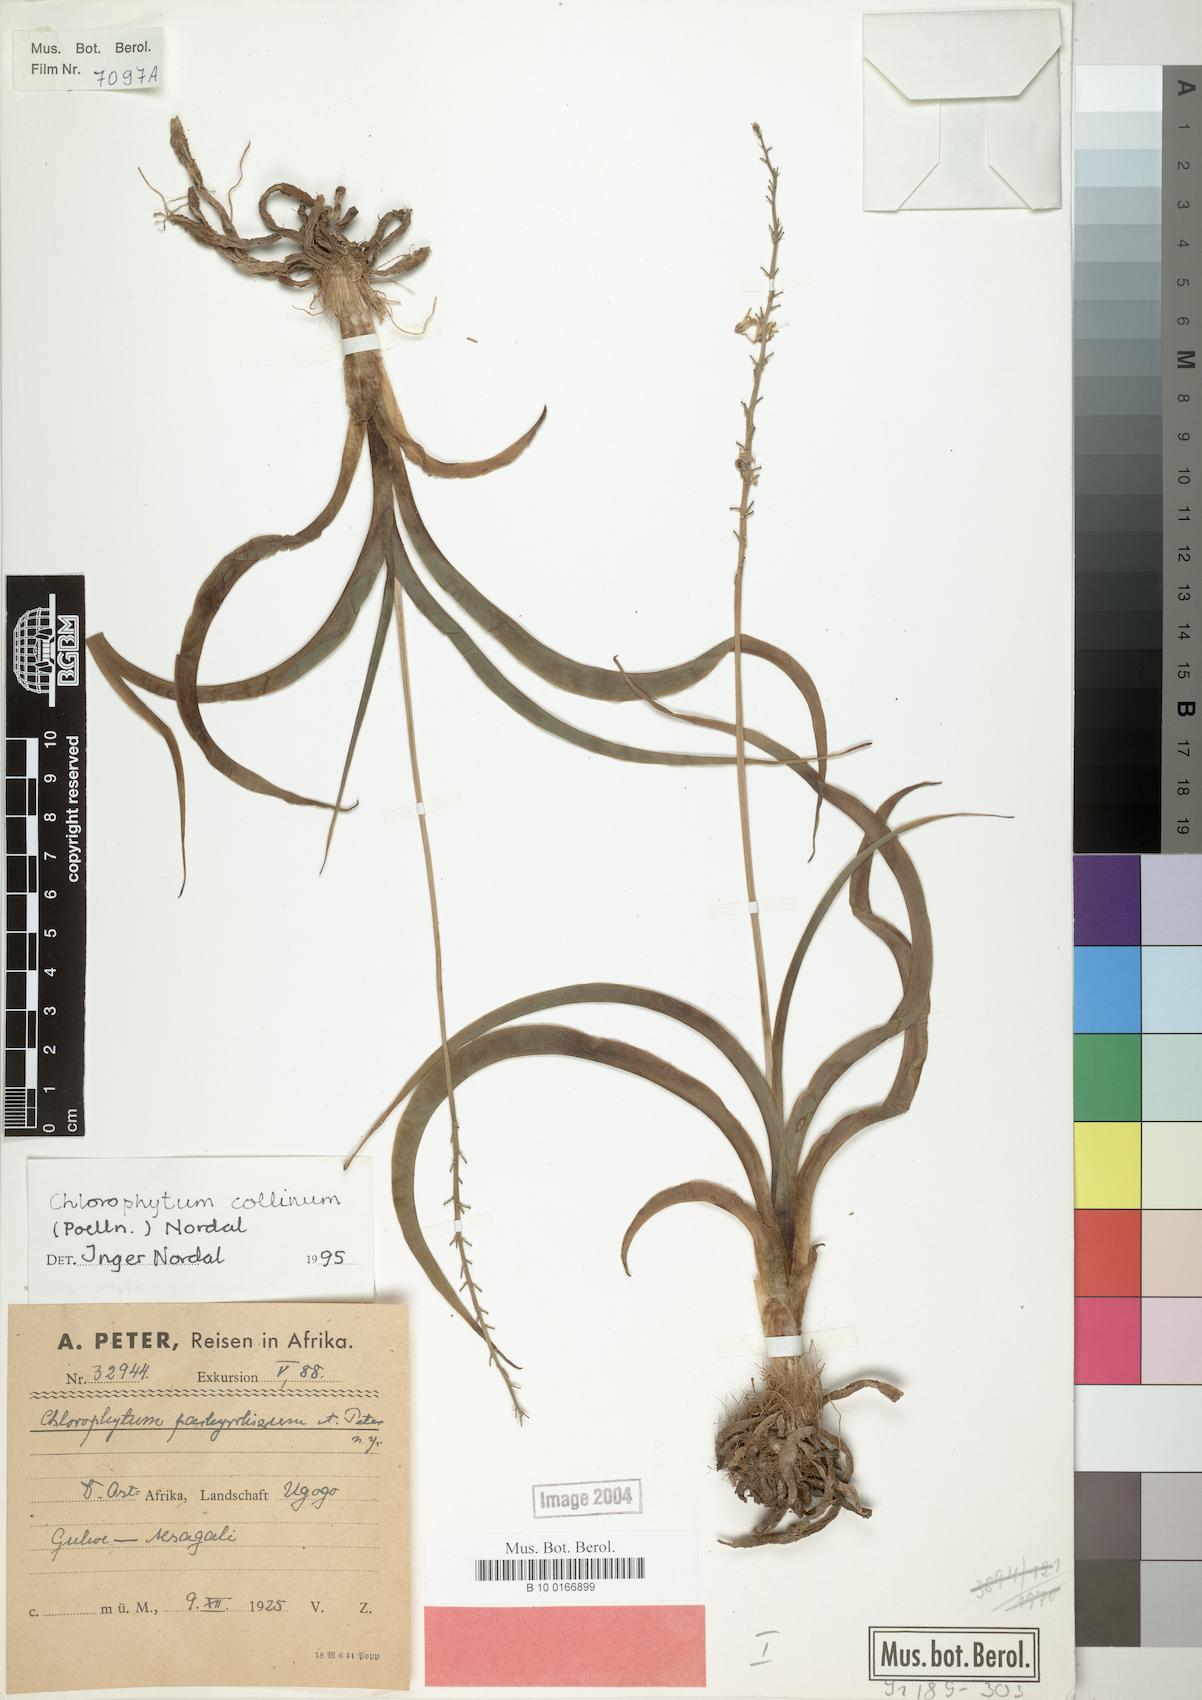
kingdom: Plantae
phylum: Tracheophyta
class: Liliopsida
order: Asparagales
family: Asparagaceae
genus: Chlorophytum
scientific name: Chlorophytum collinum
